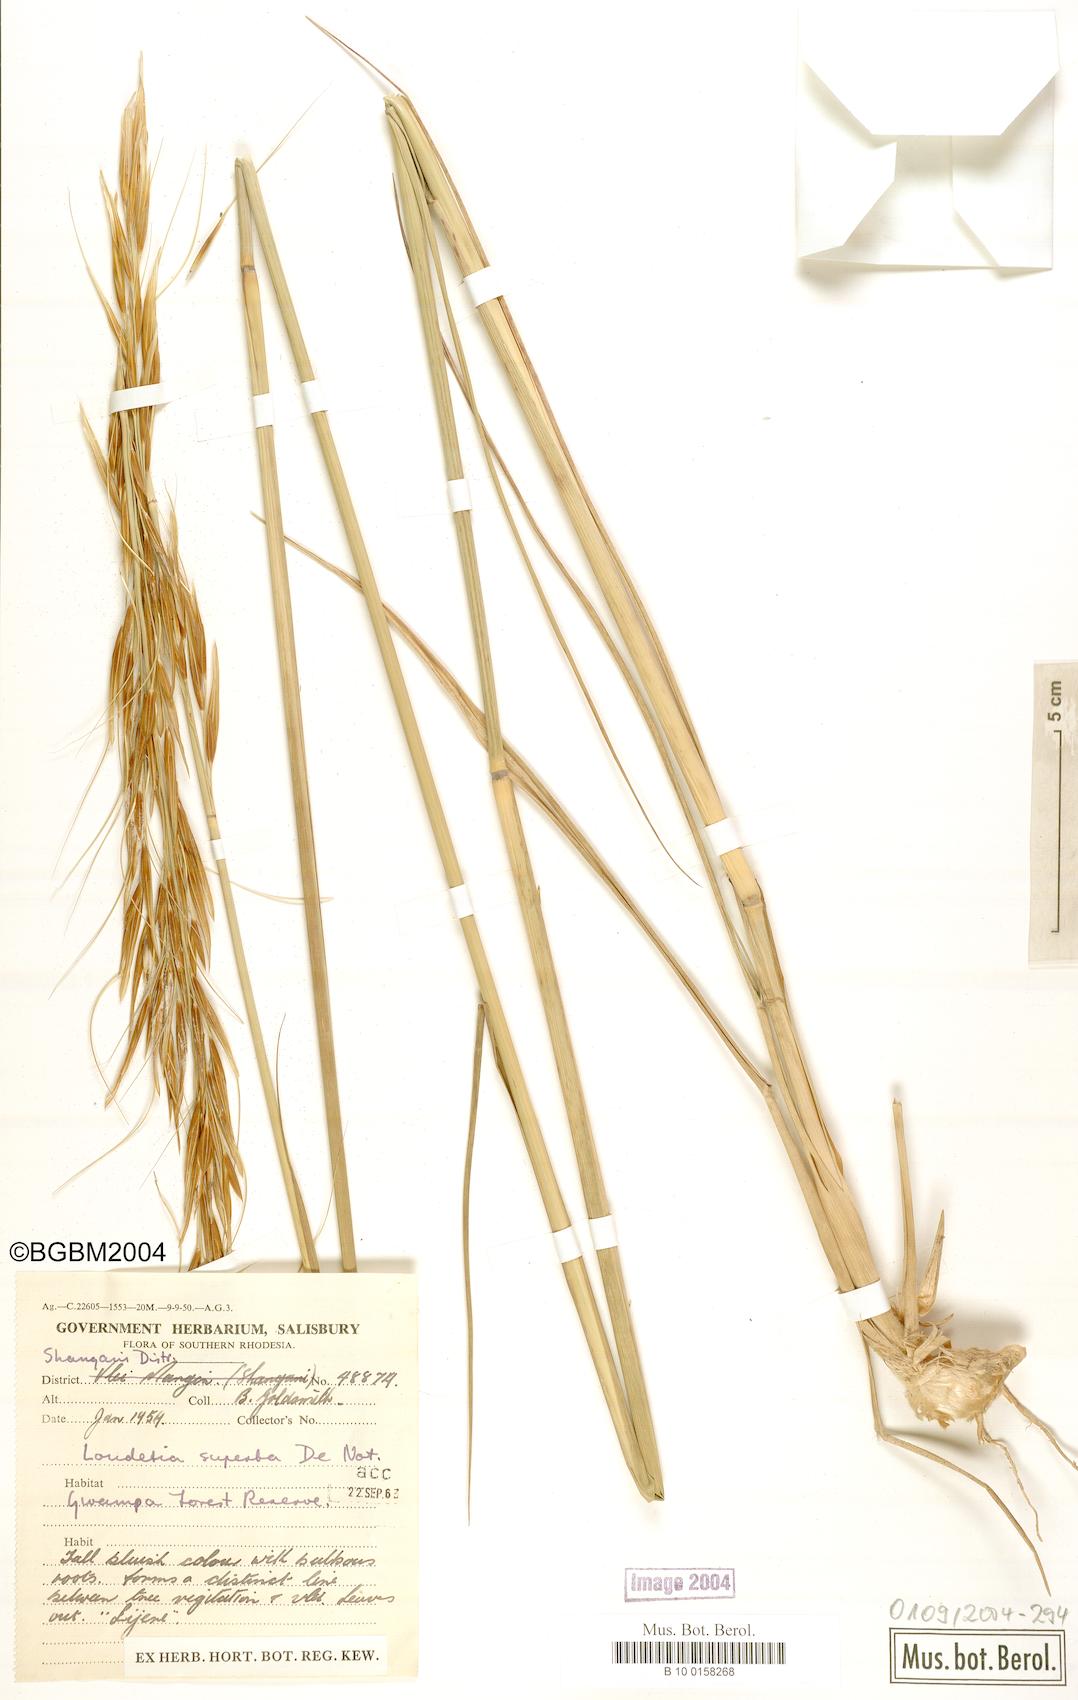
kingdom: Plantae
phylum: Tracheophyta
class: Liliopsida
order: Poales
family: Poaceae
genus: Tristachya
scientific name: Tristachya superba
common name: Giant trident grass
